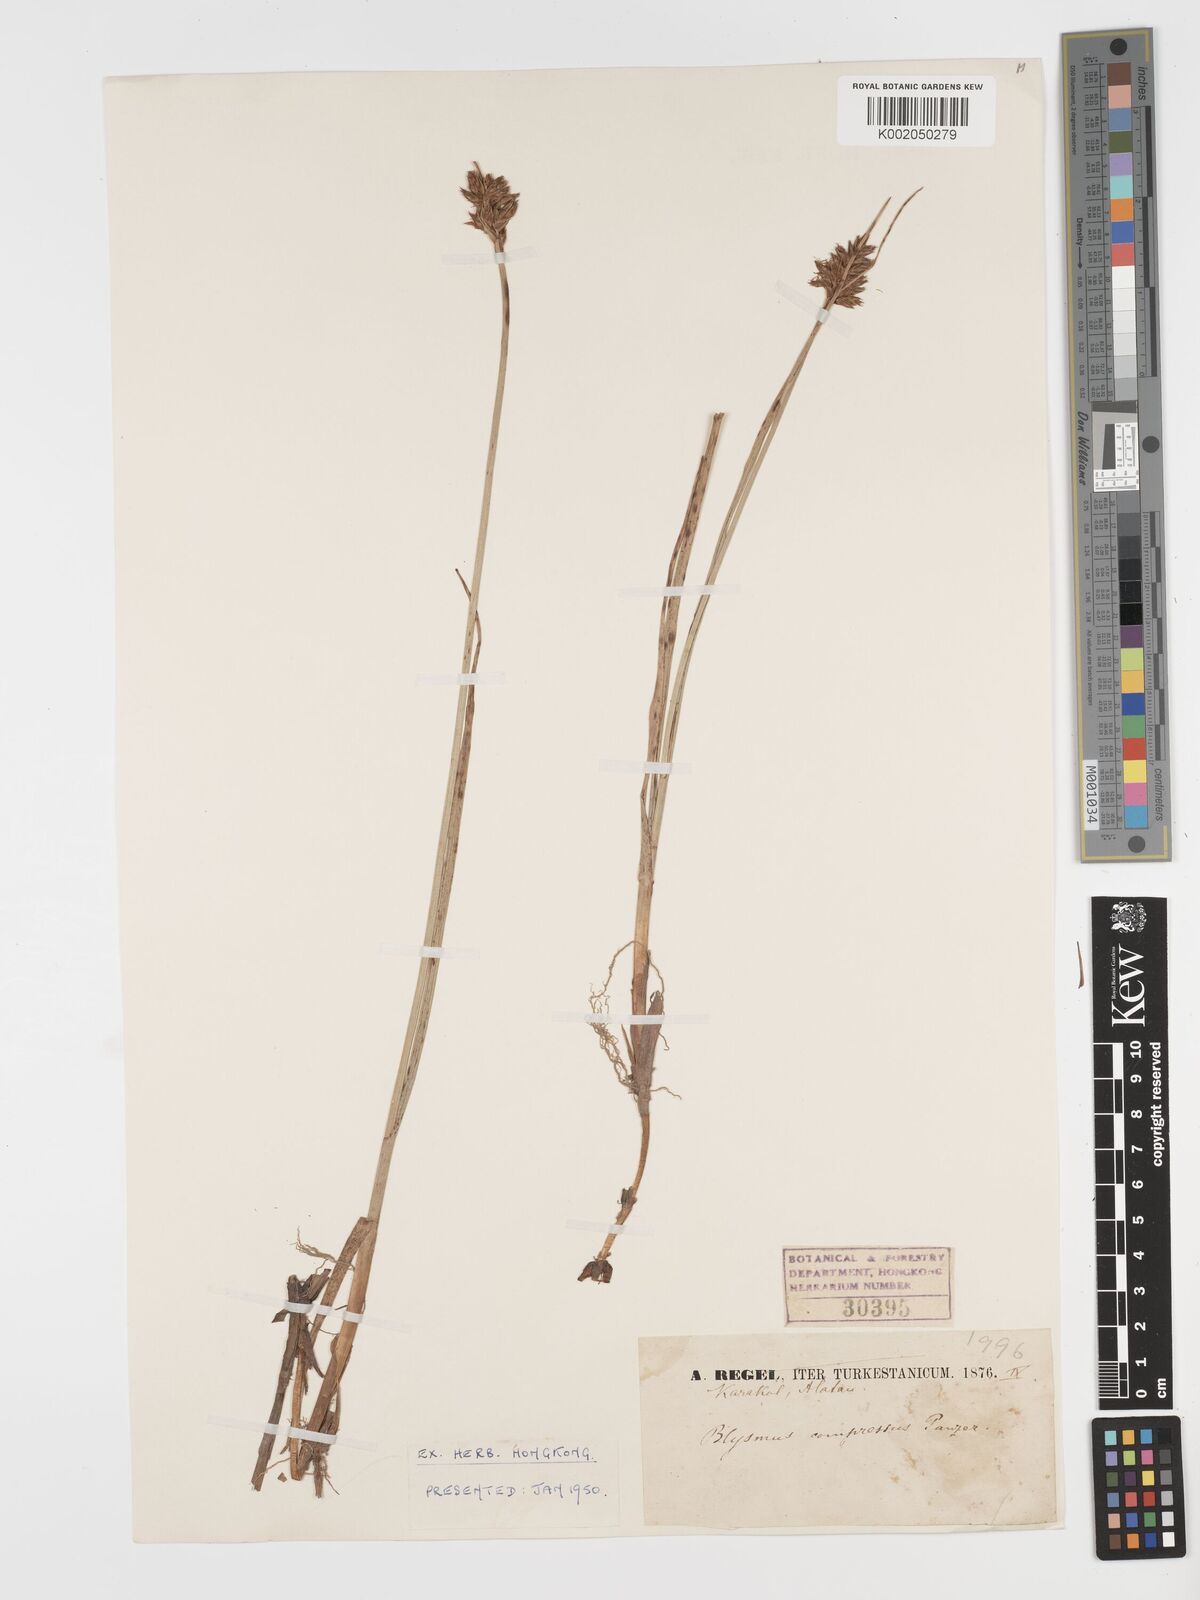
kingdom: Plantae
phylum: Tracheophyta
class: Liliopsida
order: Poales
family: Cyperaceae
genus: Blysmus
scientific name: Blysmus compressus
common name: Flat-sedge
